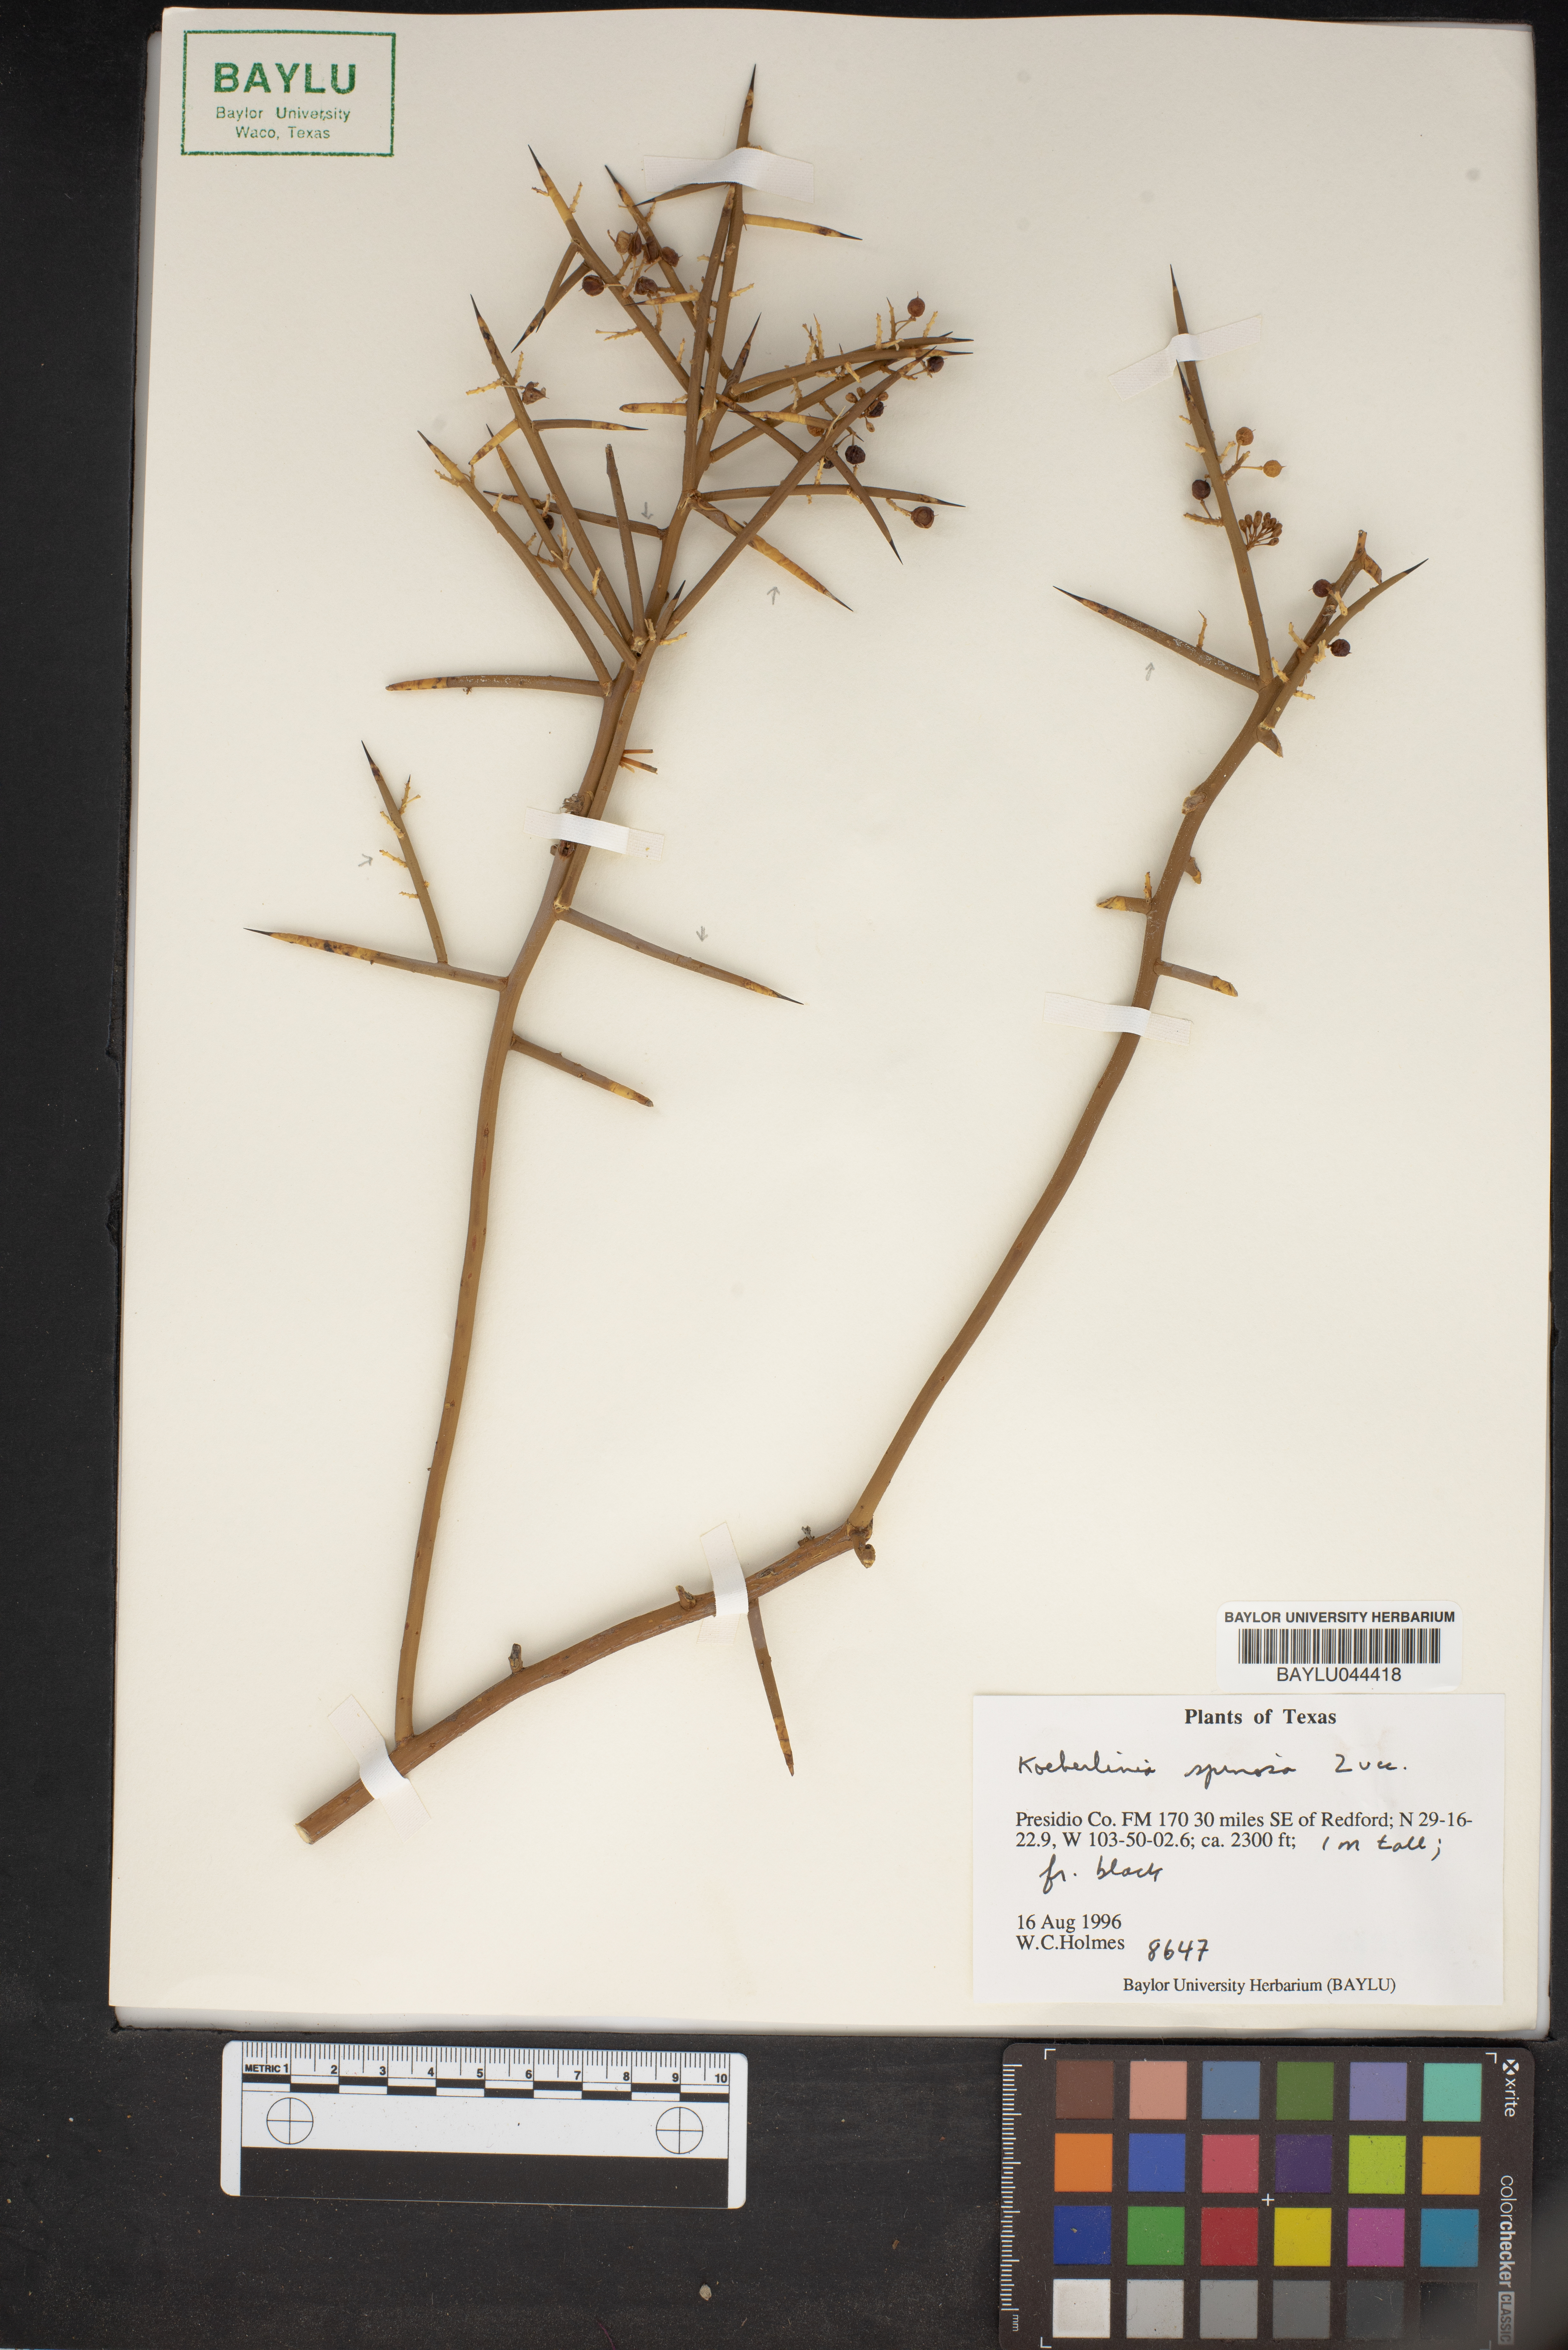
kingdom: Plantae
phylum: Tracheophyta
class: Magnoliopsida
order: Brassicales
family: Koeberliniaceae
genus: Koeberlinia
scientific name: Koeberlinia spinosa
